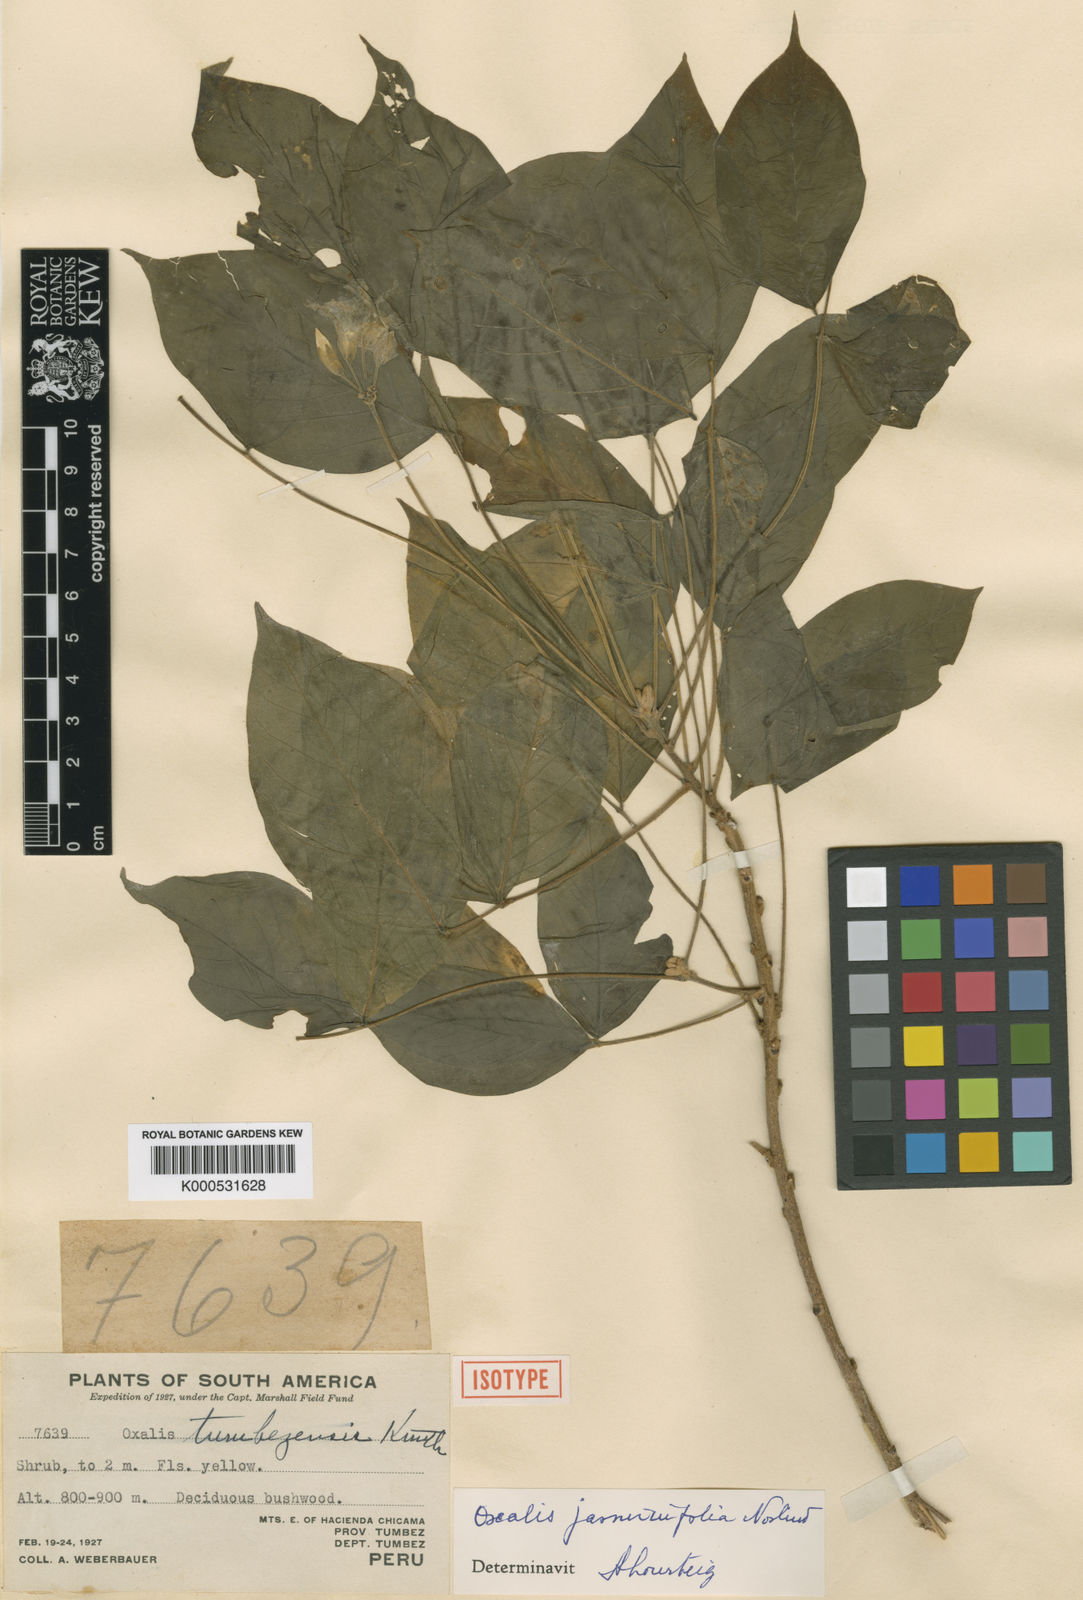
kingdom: Plantae
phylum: Tracheophyta
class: Magnoliopsida
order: Oxalidales
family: Oxalidaceae
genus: Oxalis
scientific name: Oxalis jasminifolia
